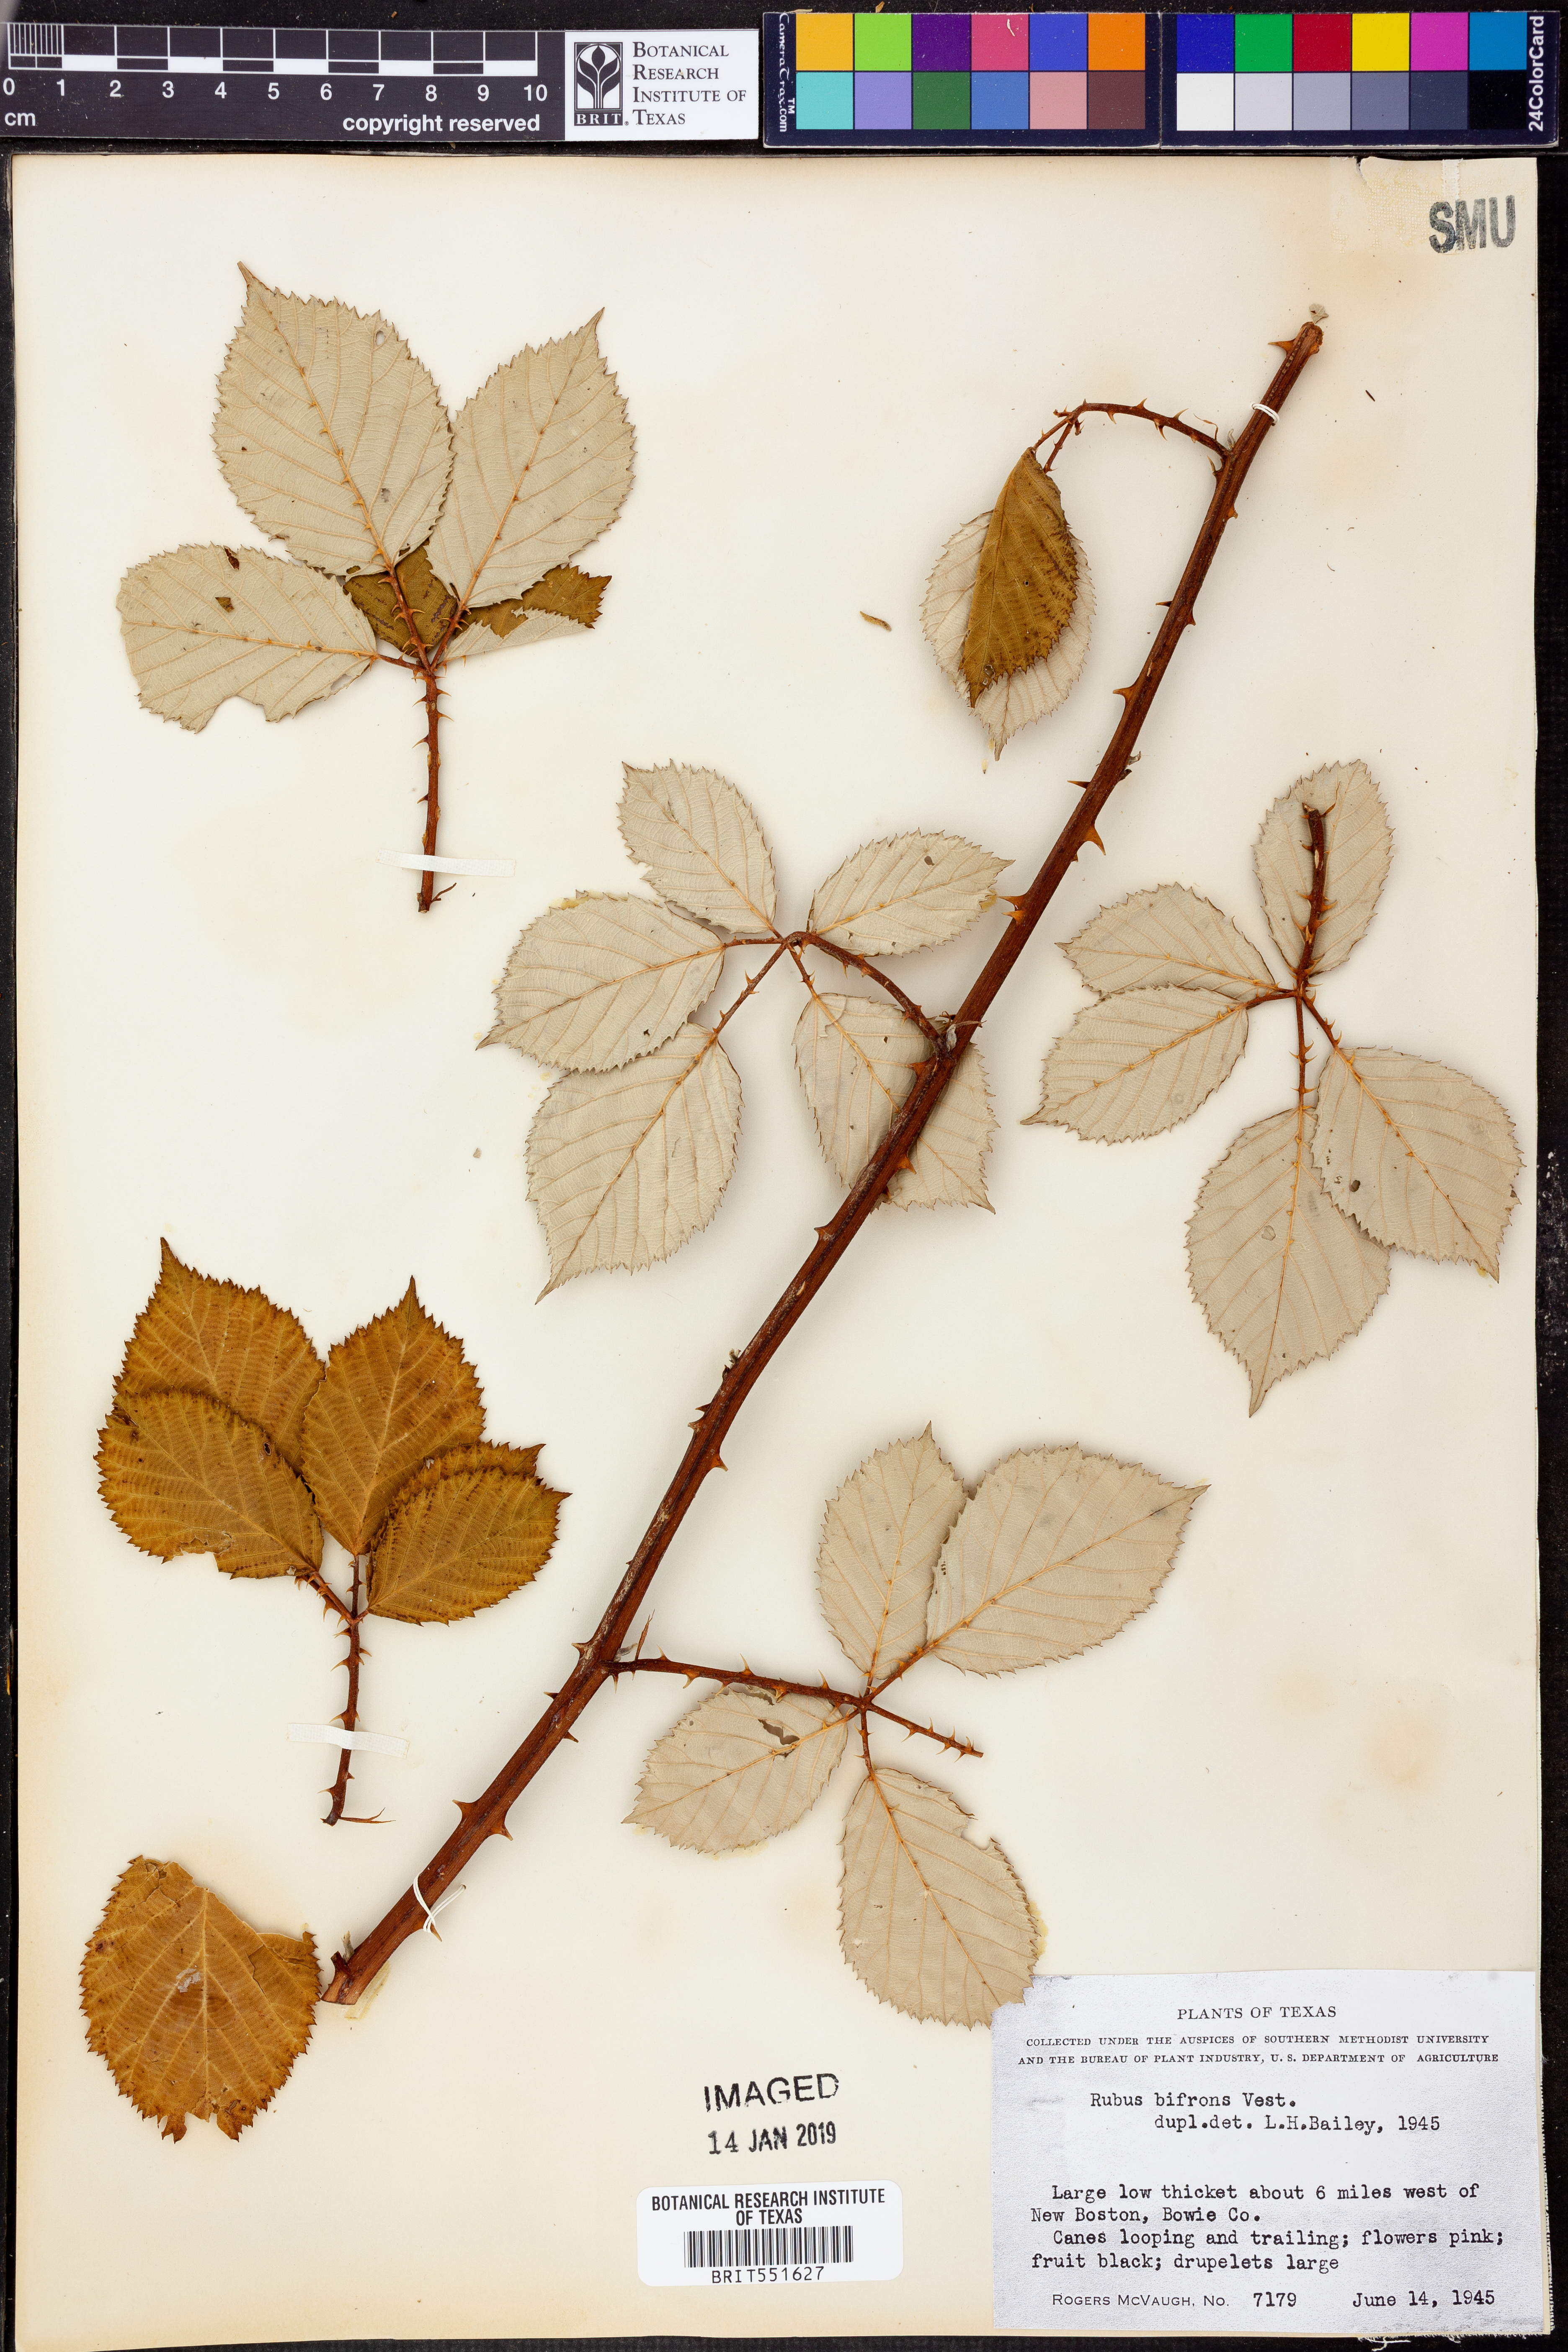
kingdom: Plantae
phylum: Tracheophyta
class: Magnoliopsida
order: Rosales
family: Rosaceae
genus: Rubus
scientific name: Rubus bifrons
